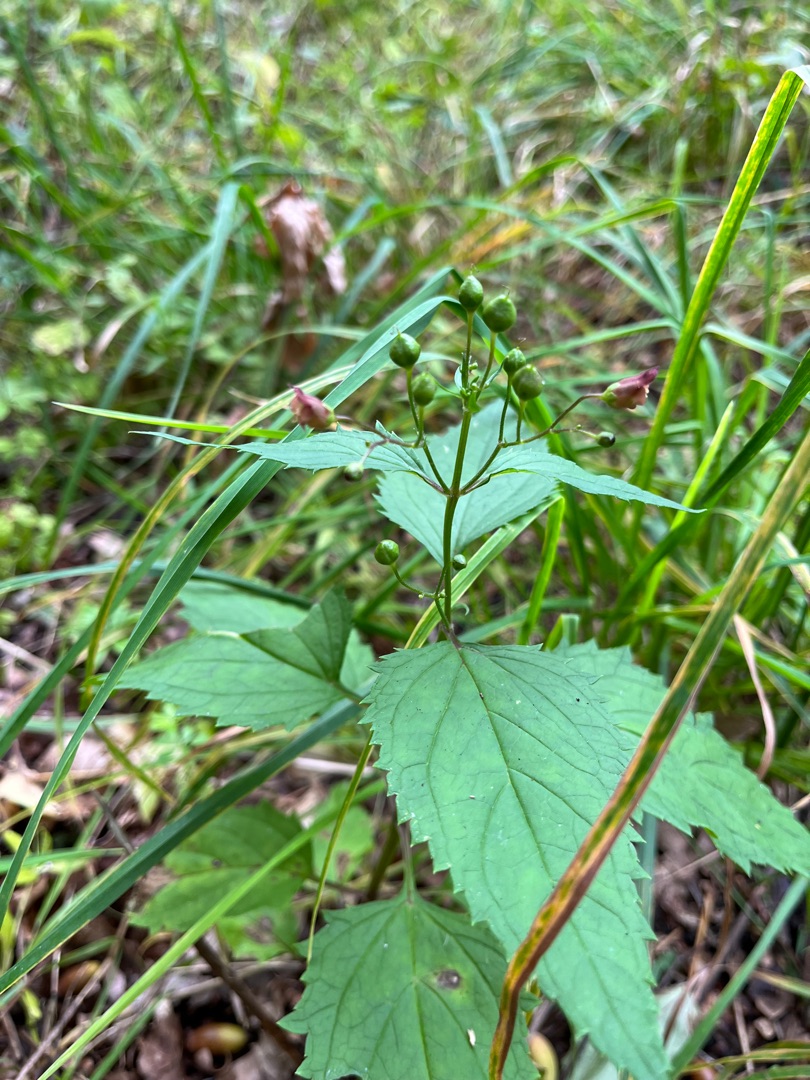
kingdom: Plantae
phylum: Tracheophyta
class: Magnoliopsida
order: Lamiales
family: Scrophulariaceae
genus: Scrophularia
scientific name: Scrophularia nodosa
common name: Knoldet brunrod
